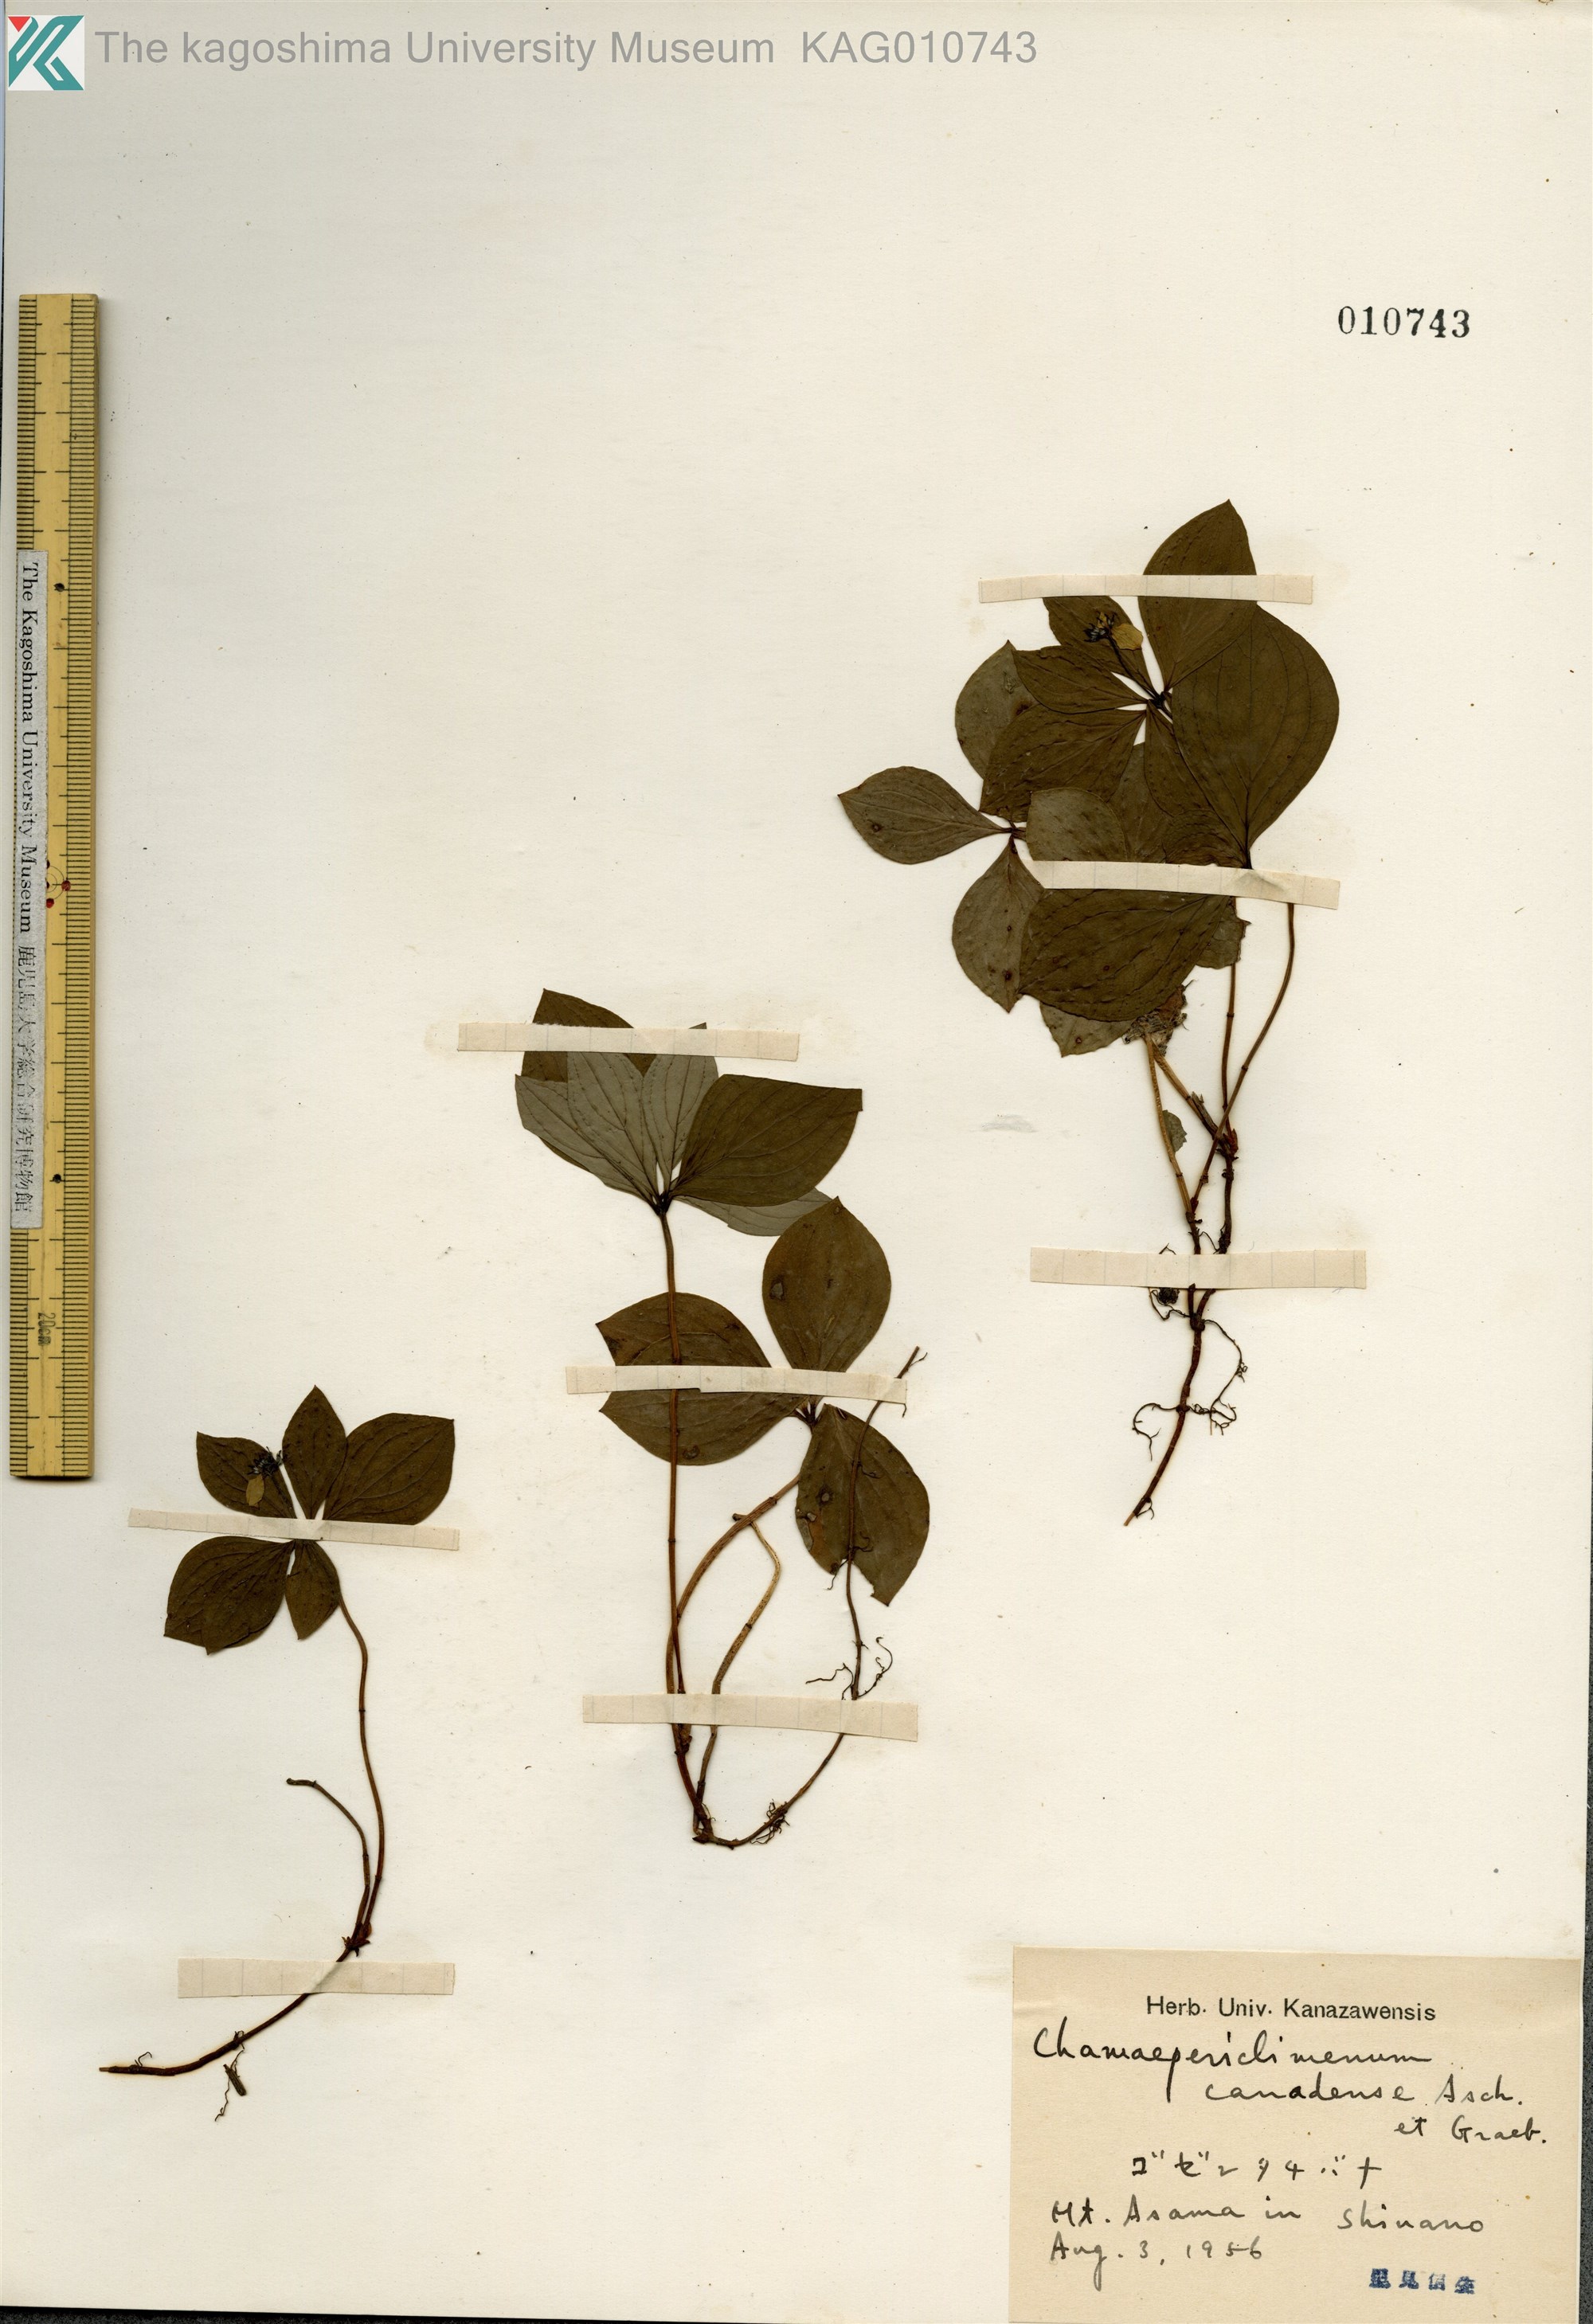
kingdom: Plantae
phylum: Tracheophyta
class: Magnoliopsida
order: Cornales
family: Cornaceae
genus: Cornus
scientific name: Cornus canadensis
